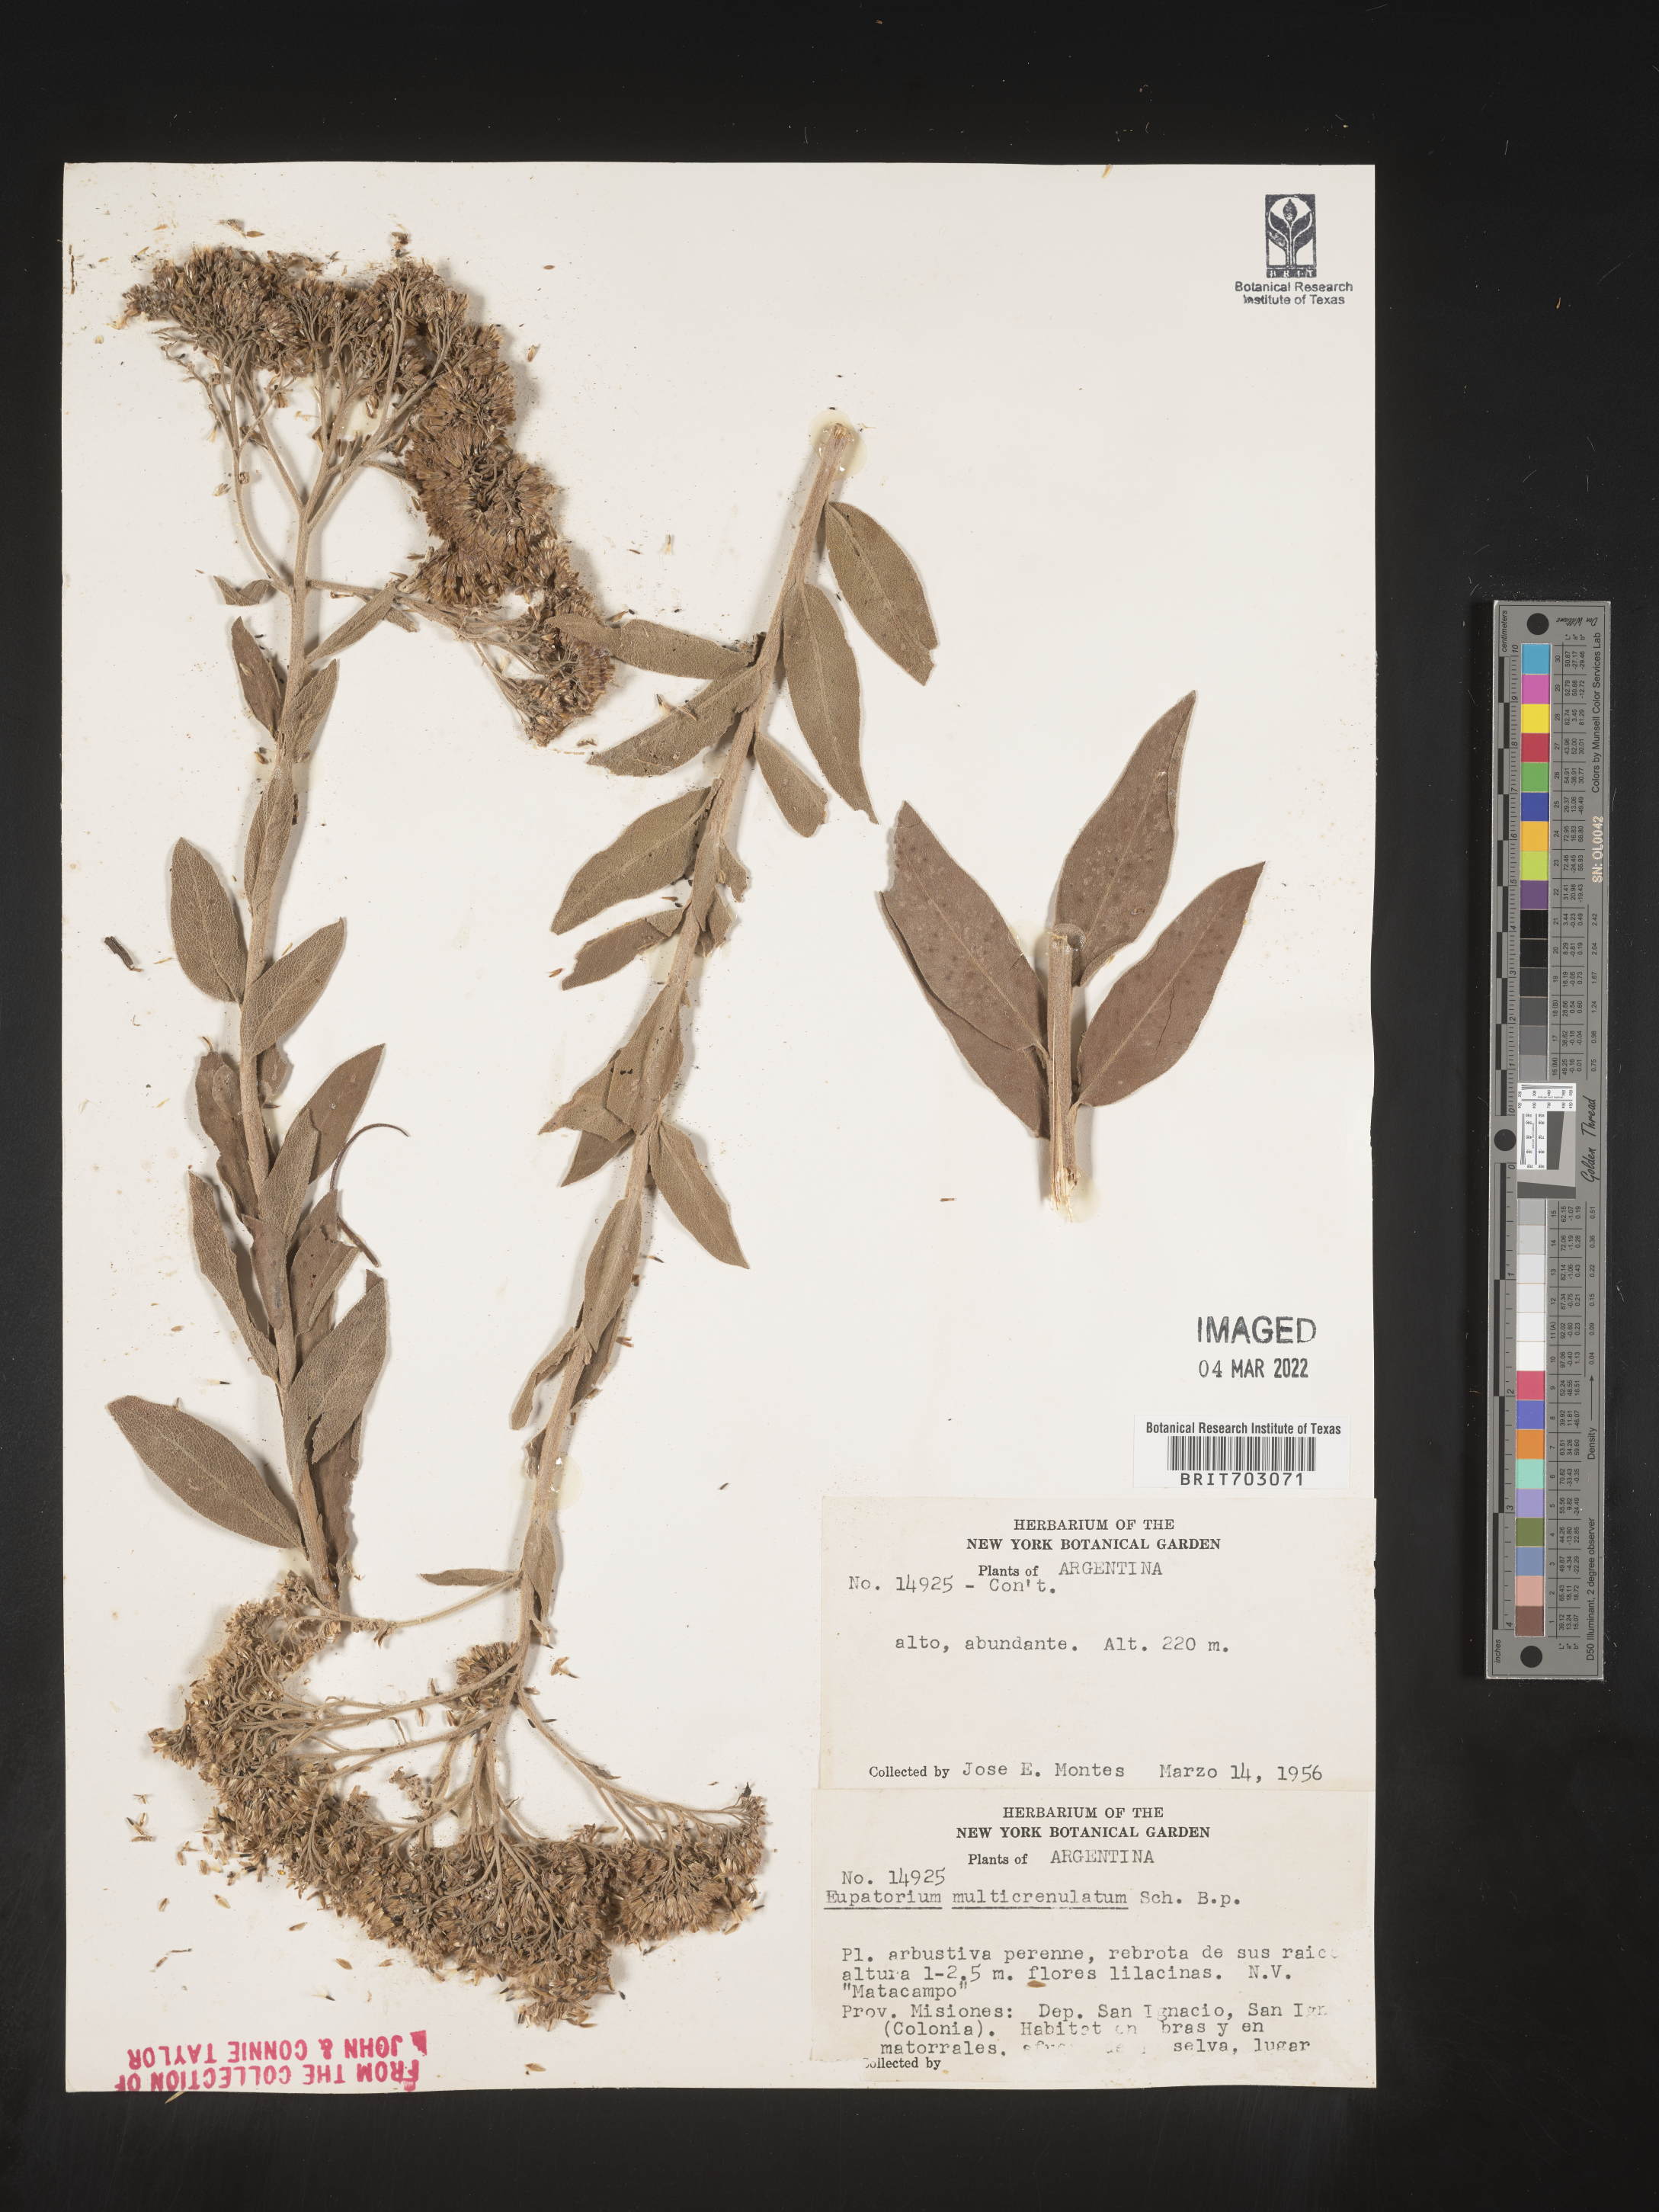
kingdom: Plantae
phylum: Tracheophyta
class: Magnoliopsida
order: Asterales
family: Asteraceae
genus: Eupatorium
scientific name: Eupatorium
